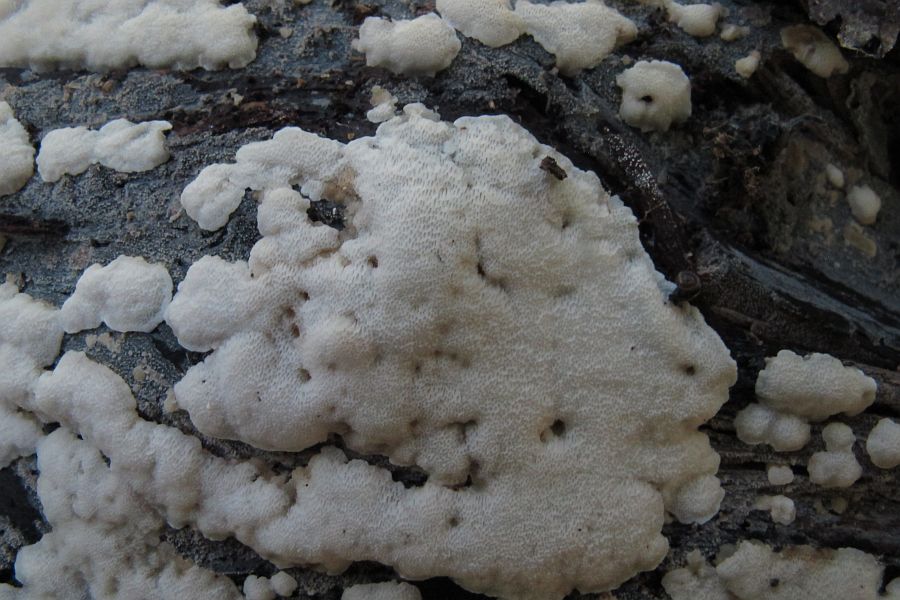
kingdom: Fungi
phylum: Basidiomycota
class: Agaricomycetes
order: Polyporales
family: Meripilaceae
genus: Rigidoporus
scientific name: Rigidoporus sanguinolentus
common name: blod-skorpeporesvamp
